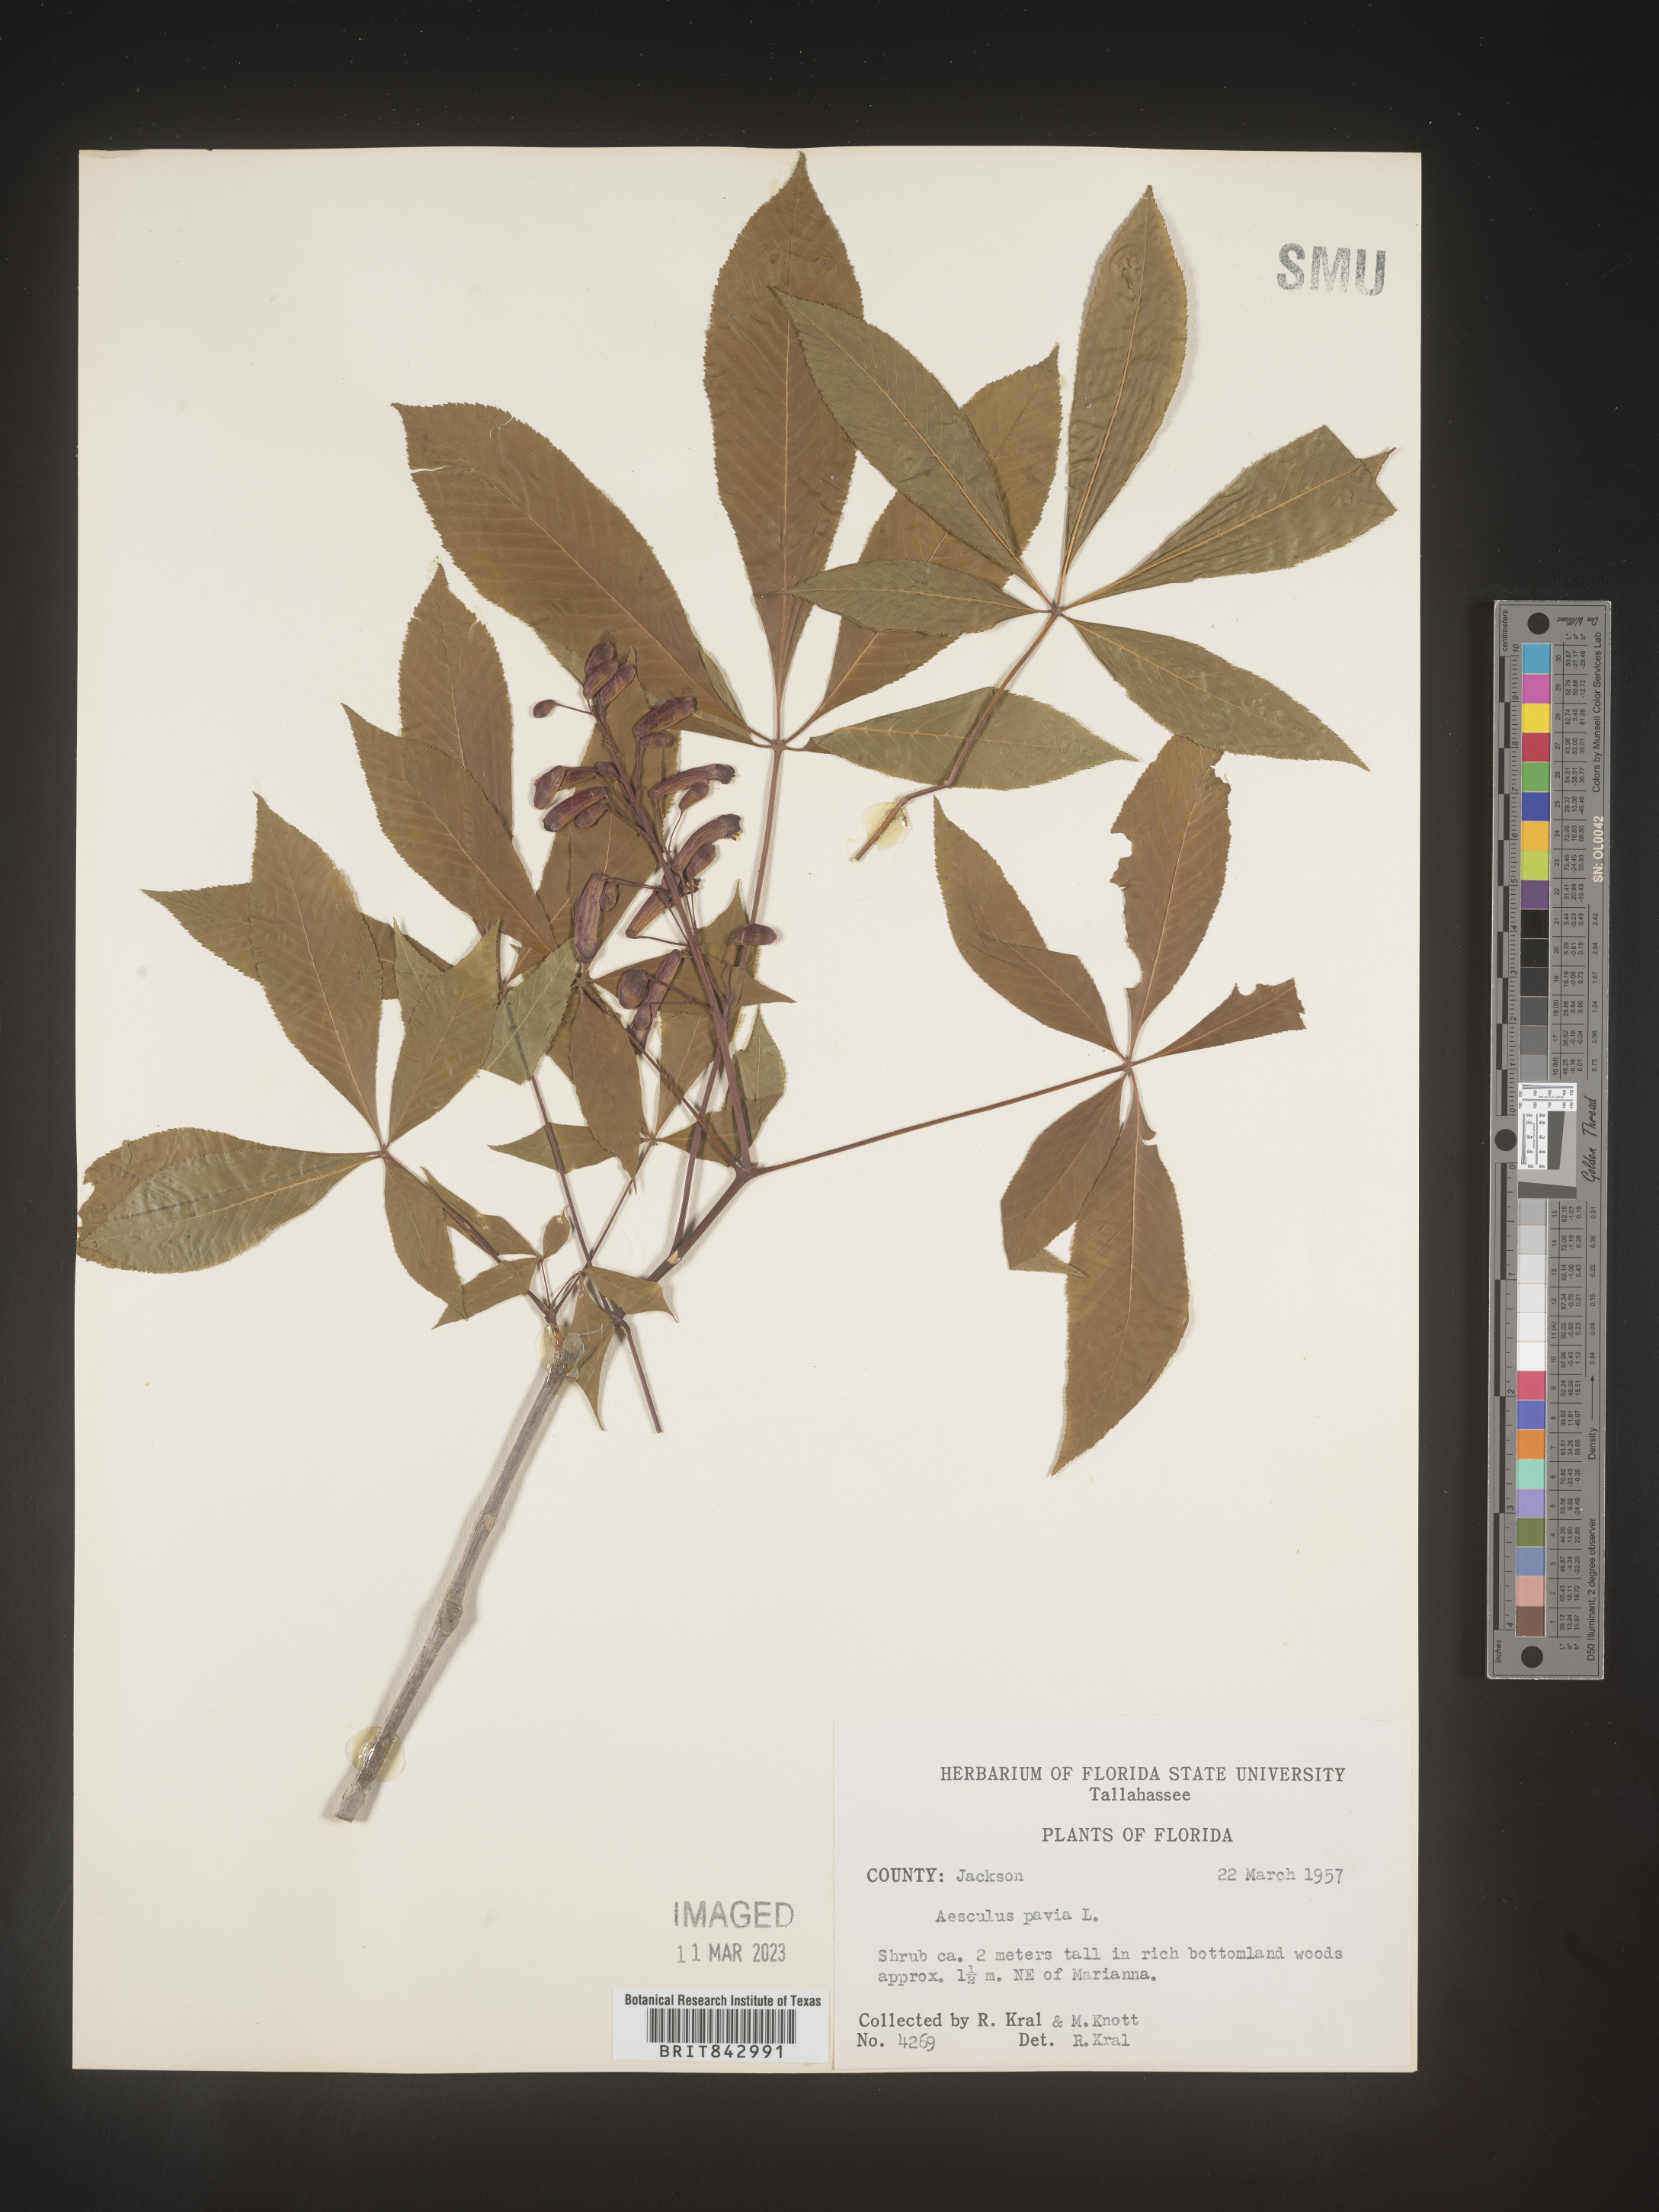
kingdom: Plantae
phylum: Tracheophyta
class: Magnoliopsida
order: Sapindales
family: Sapindaceae
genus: Aesculus
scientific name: Aesculus pavia
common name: Red buckeye
